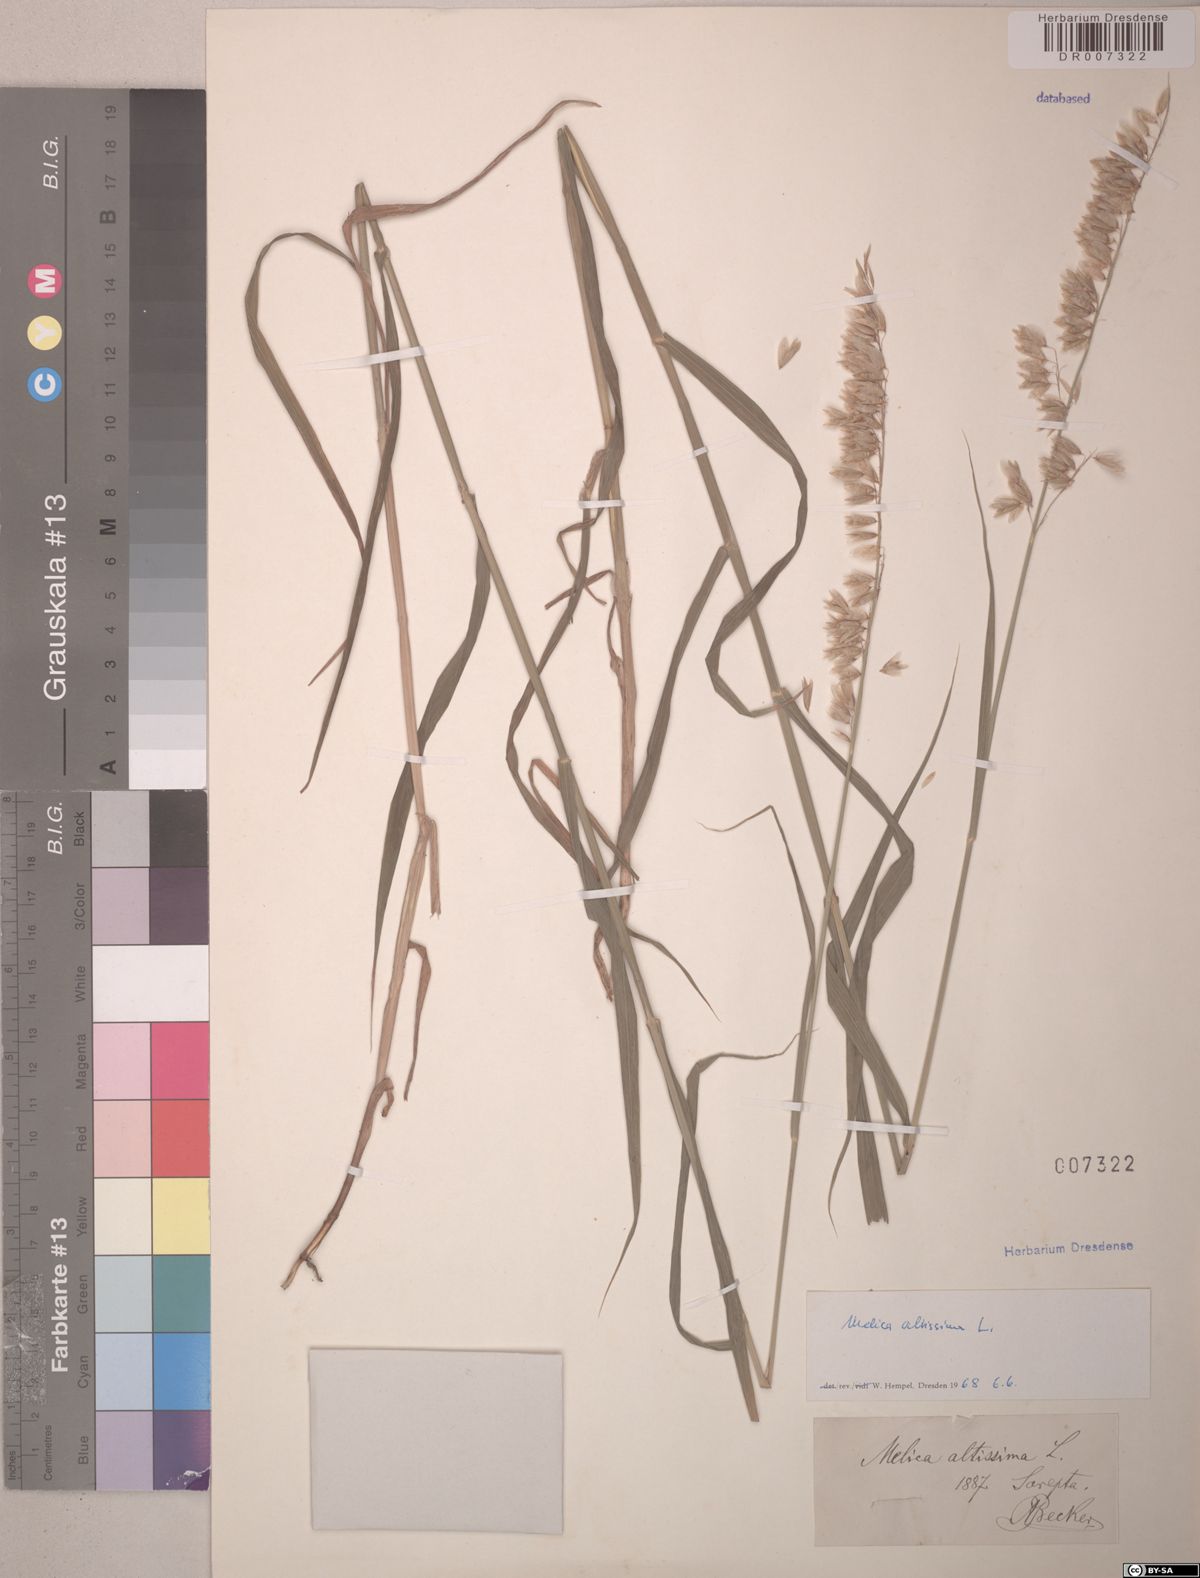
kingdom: Plantae
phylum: Tracheophyta
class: Liliopsida
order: Poales
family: Poaceae
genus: Melica
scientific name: Melica altissima
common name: Siberian melicgrass
